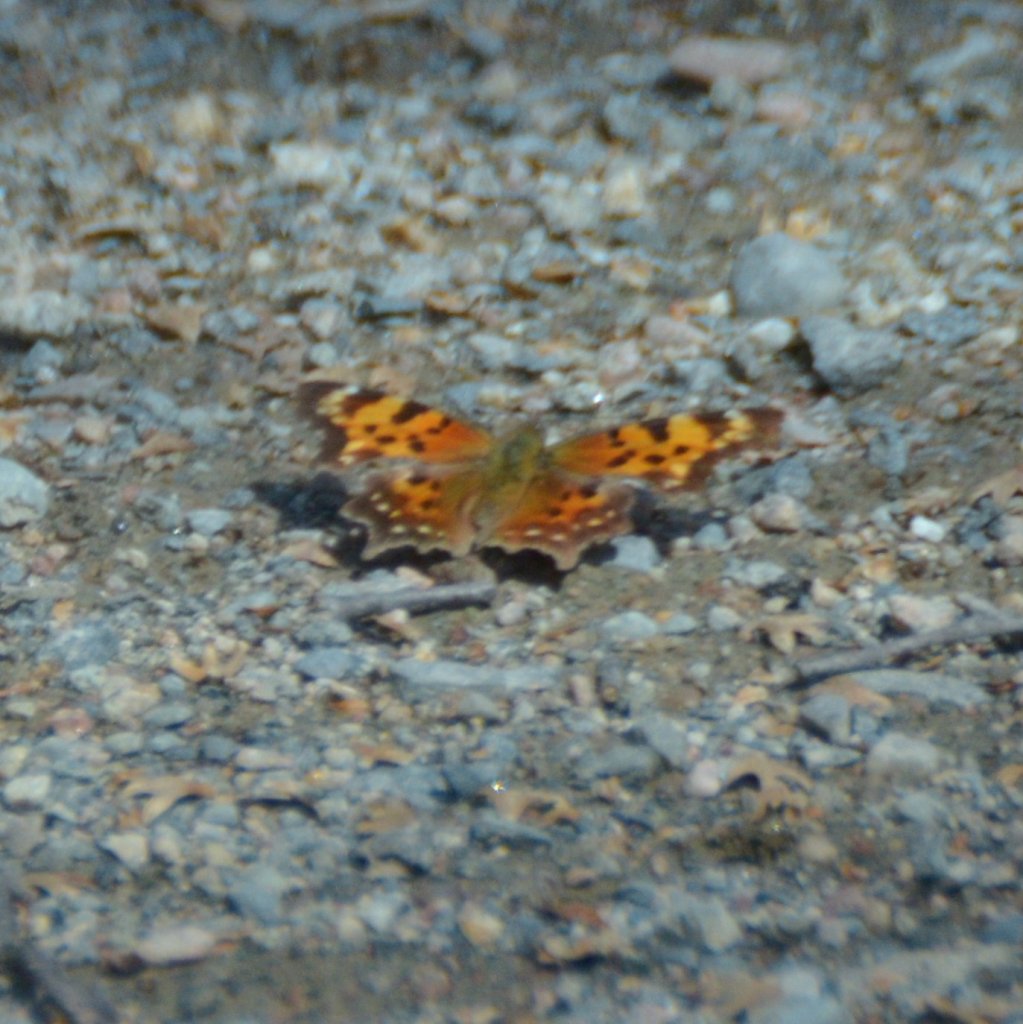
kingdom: Animalia
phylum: Arthropoda
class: Insecta
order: Lepidoptera
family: Nymphalidae
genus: Polygonia
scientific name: Polygonia faunus
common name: Green Comma
